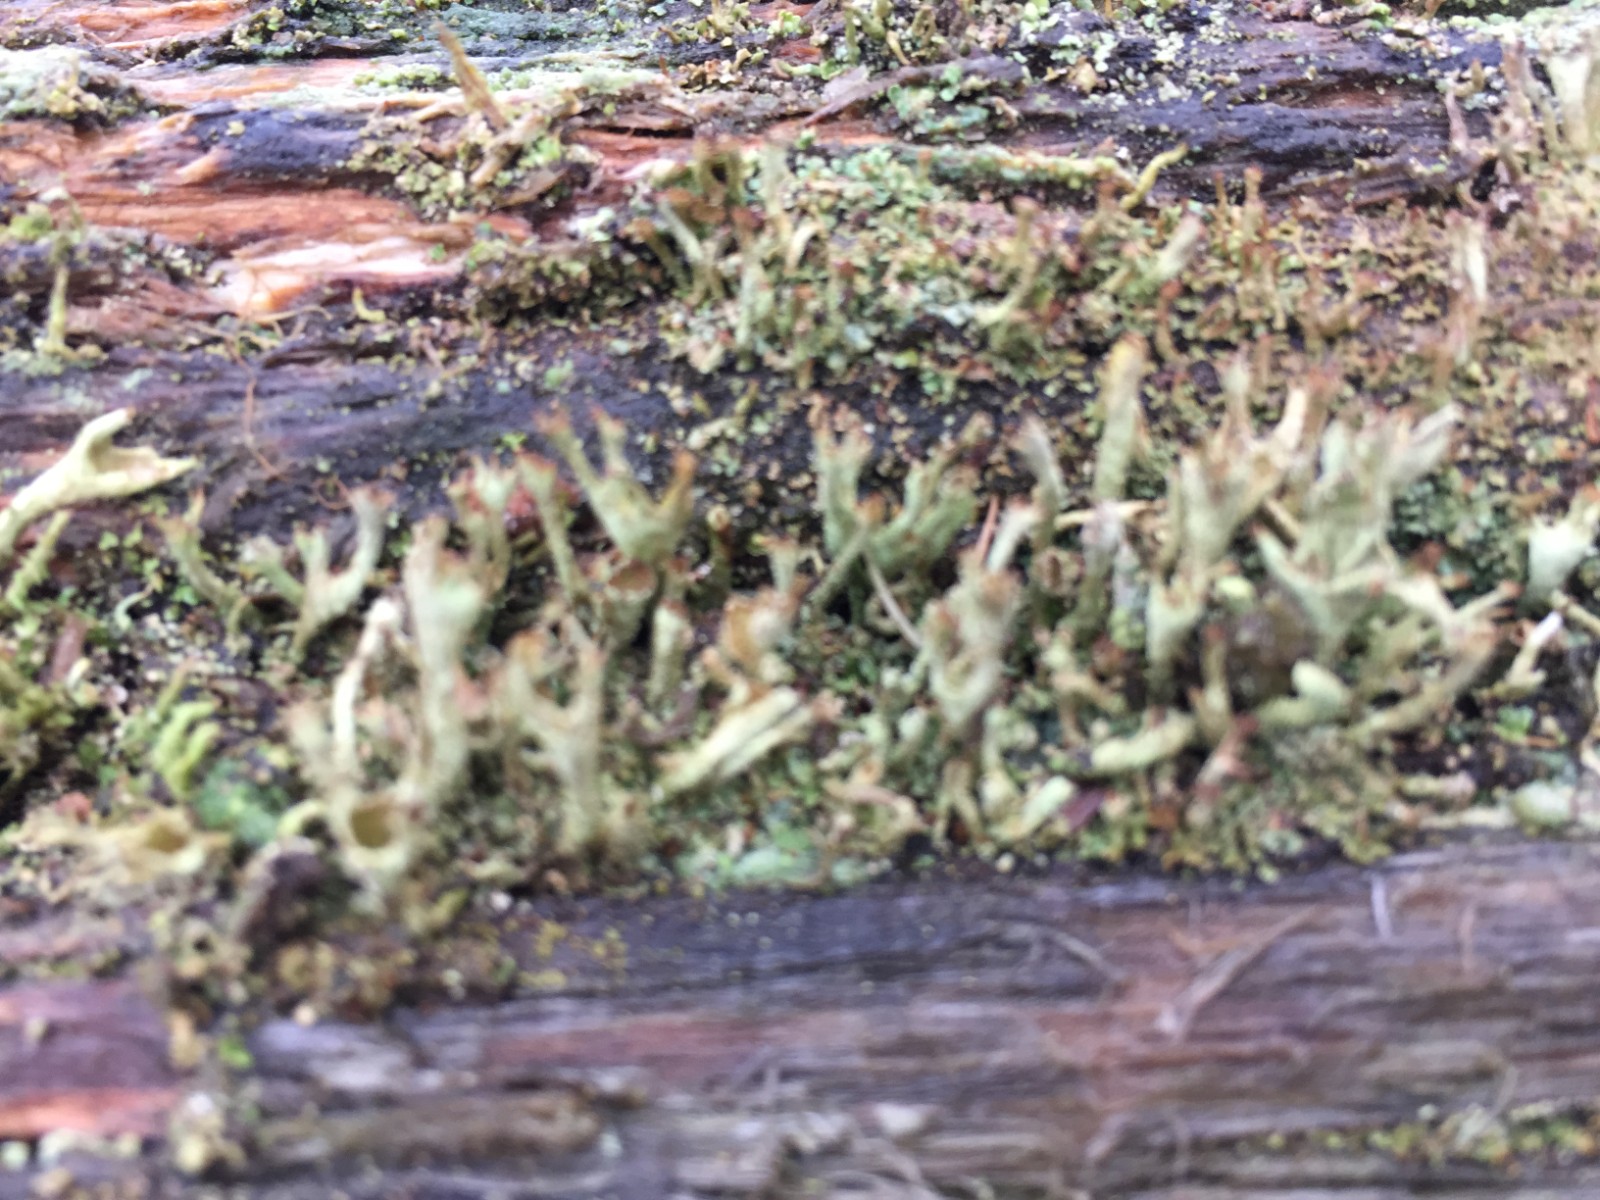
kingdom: Fungi
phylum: Ascomycota
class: Lecanoromycetes
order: Lecanorales
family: Cladoniaceae
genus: Cladonia
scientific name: Cladonia cenotea
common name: pudret bægerlav
